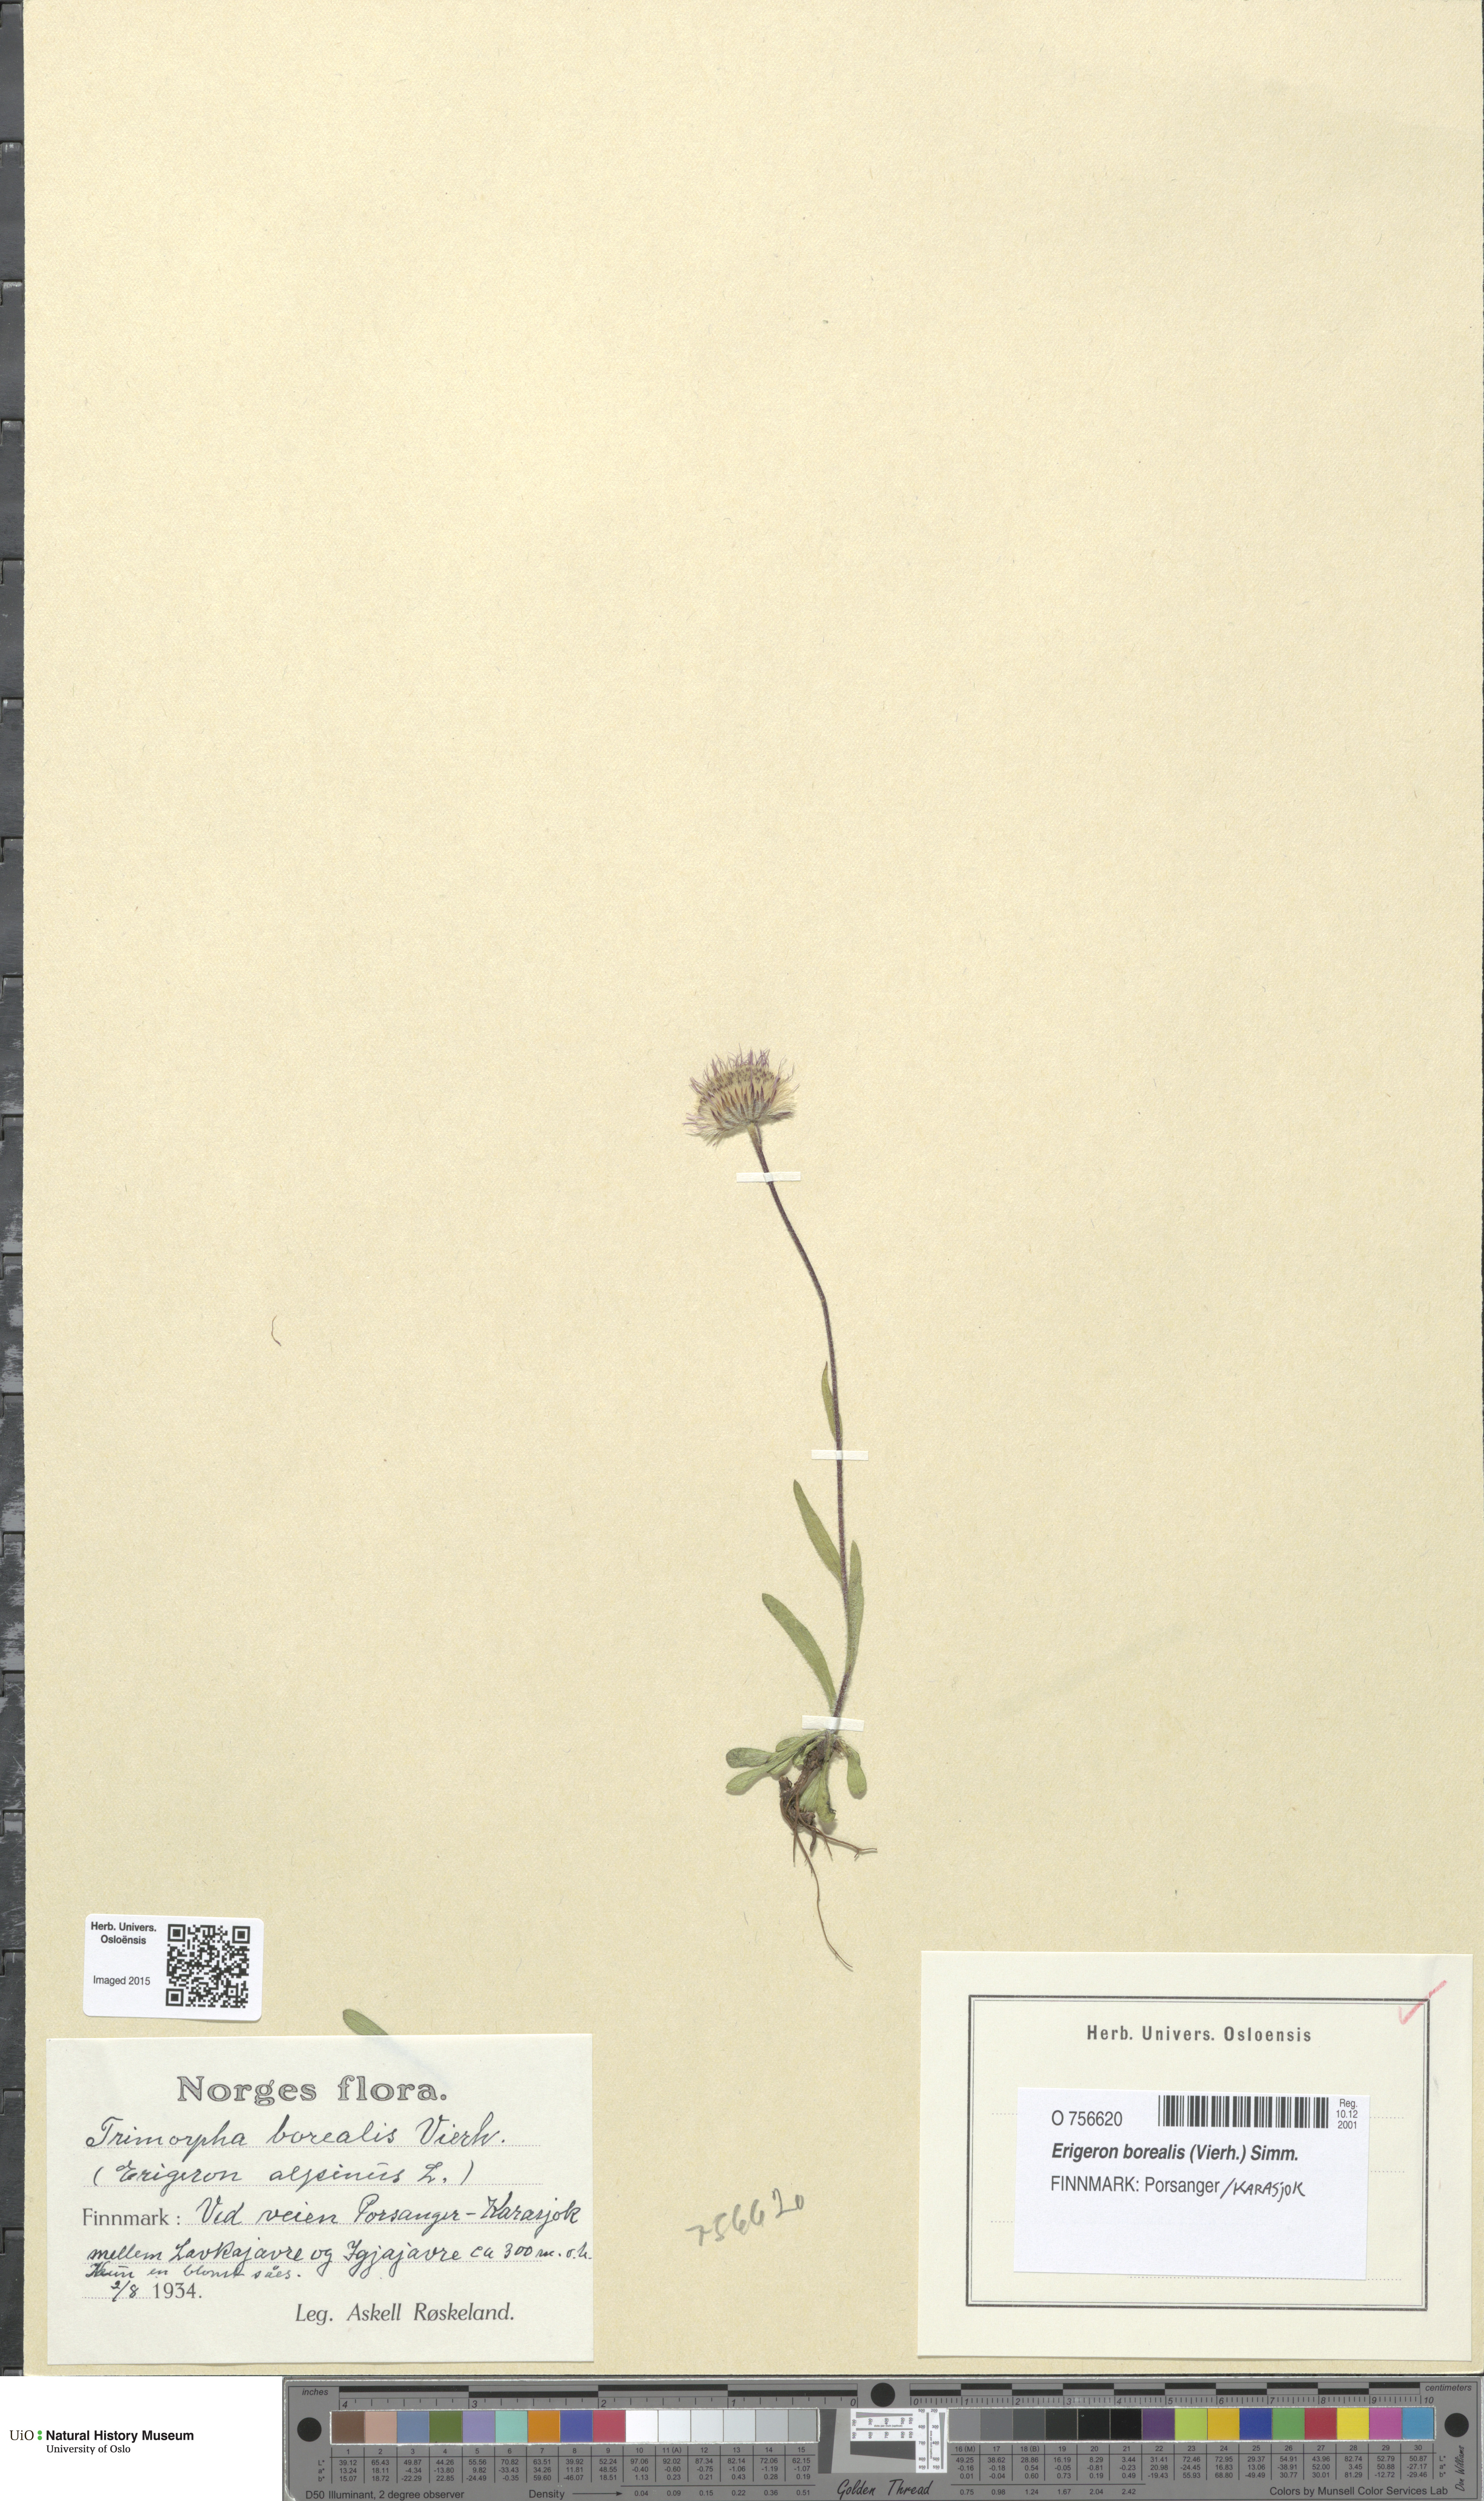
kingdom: Plantae
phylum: Tracheophyta
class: Magnoliopsida
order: Asterales
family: Asteraceae
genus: Erigeron
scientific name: Erigeron borealis
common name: Alpine fleabane
